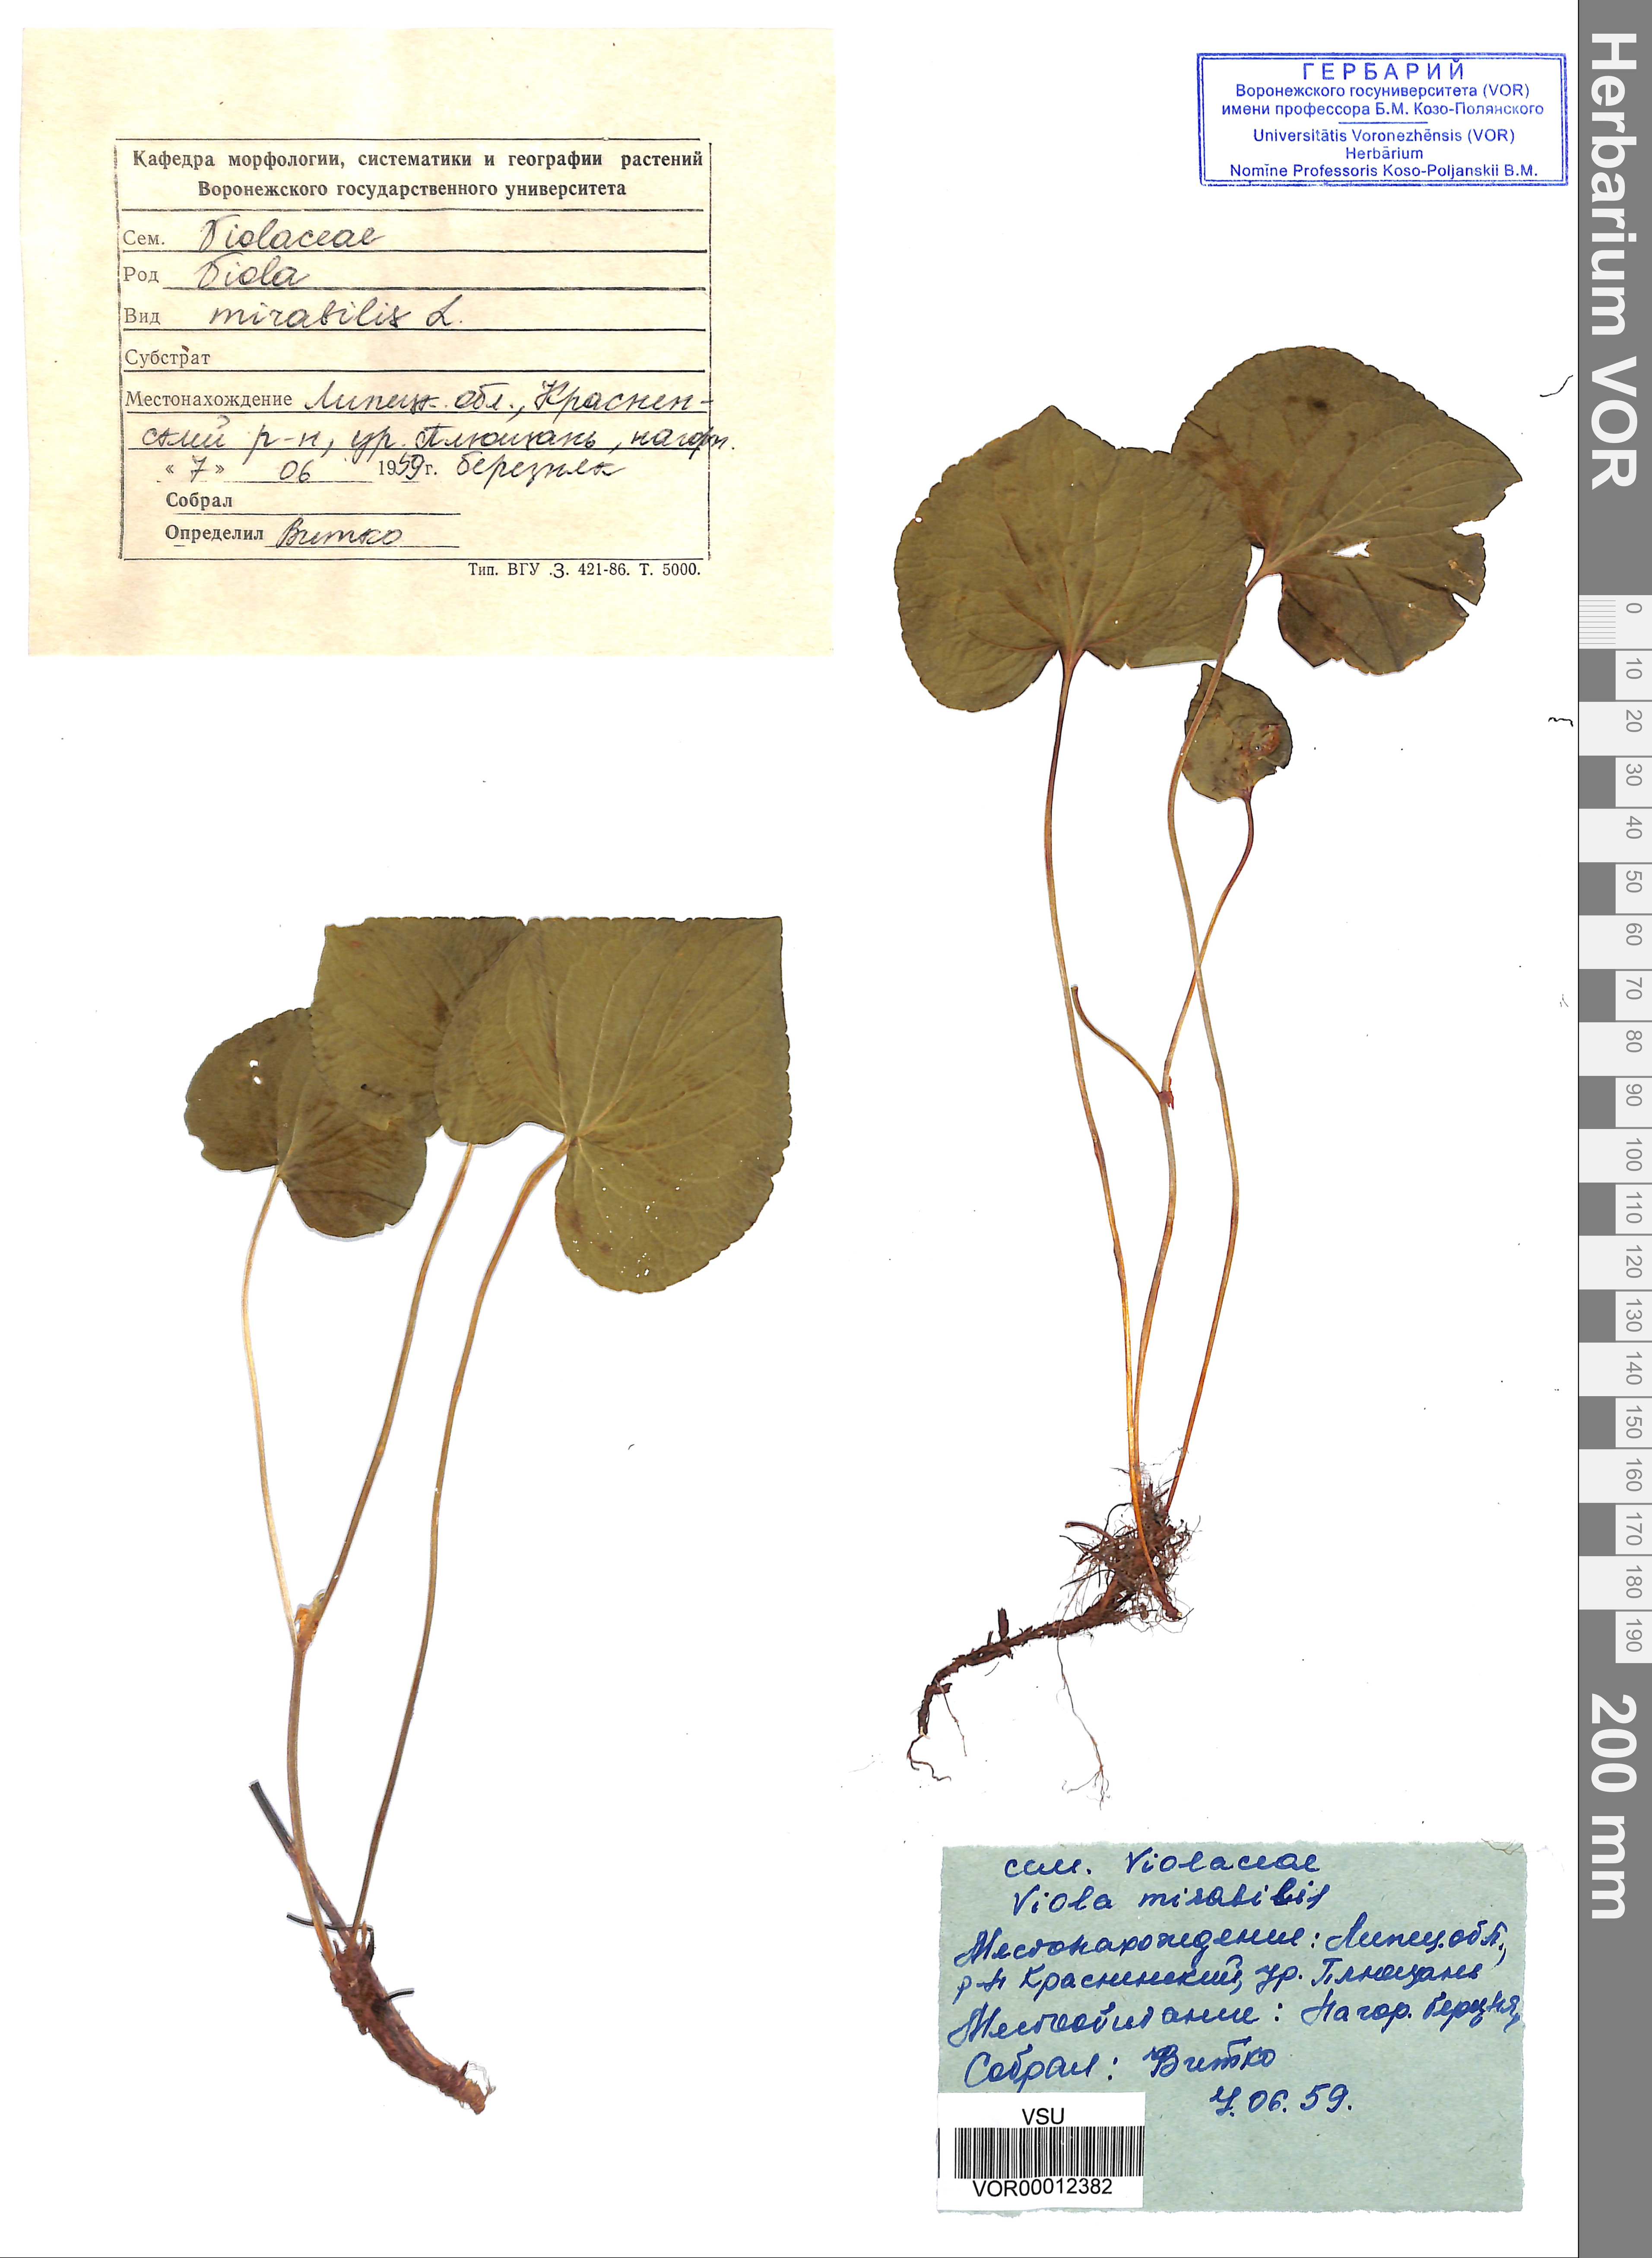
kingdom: Plantae
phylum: Tracheophyta
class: Magnoliopsida
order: Malpighiales
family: Violaceae
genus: Viola
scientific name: Viola mirabilis
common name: Wonder violet
